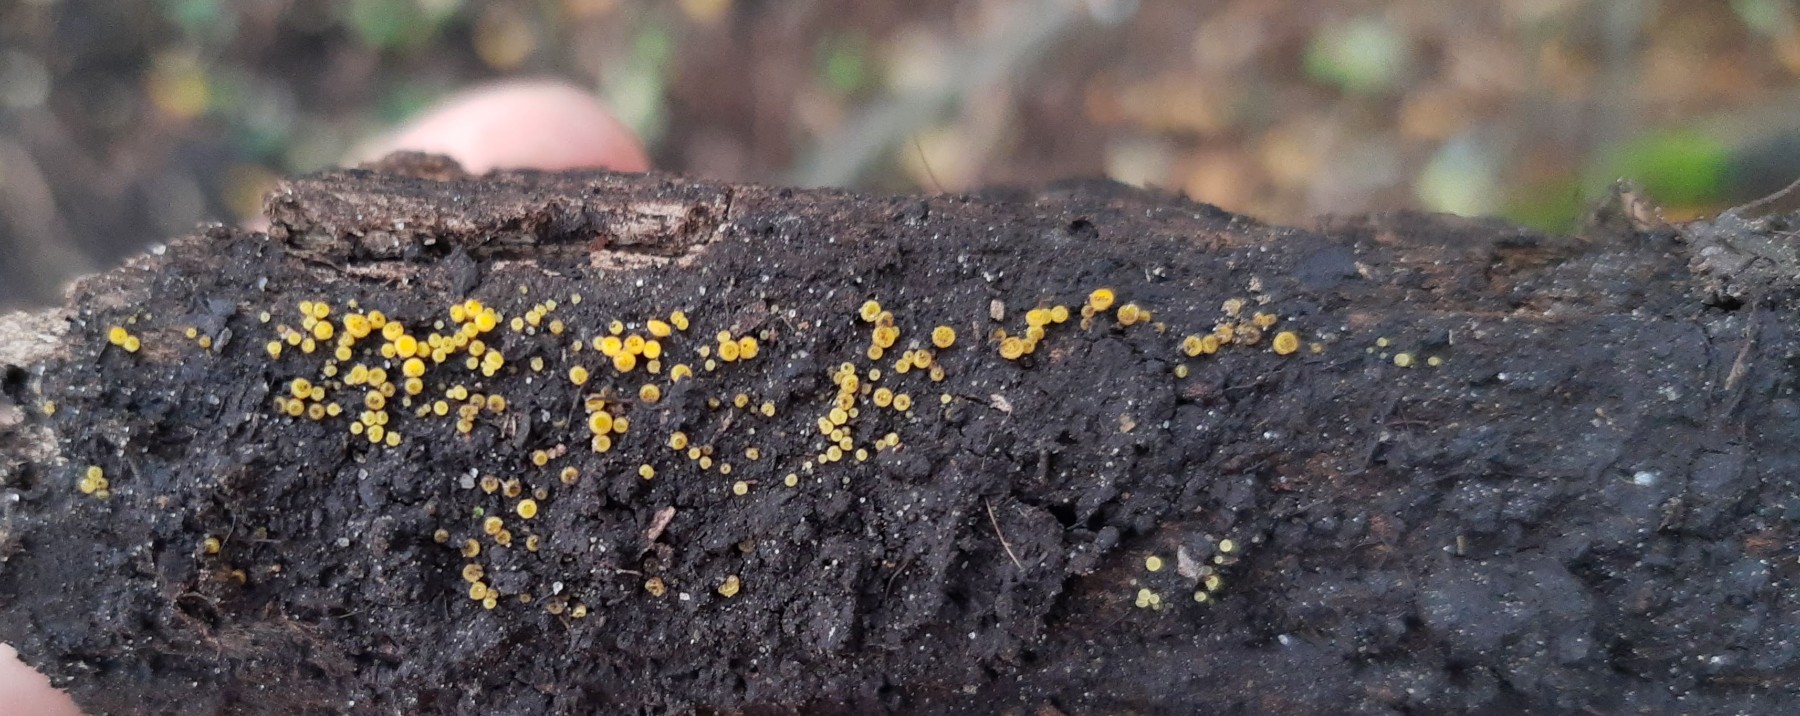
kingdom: Fungi
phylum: Ascomycota
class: Leotiomycetes
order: Helotiales
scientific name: Helotiales
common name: stilkskiveordenen
